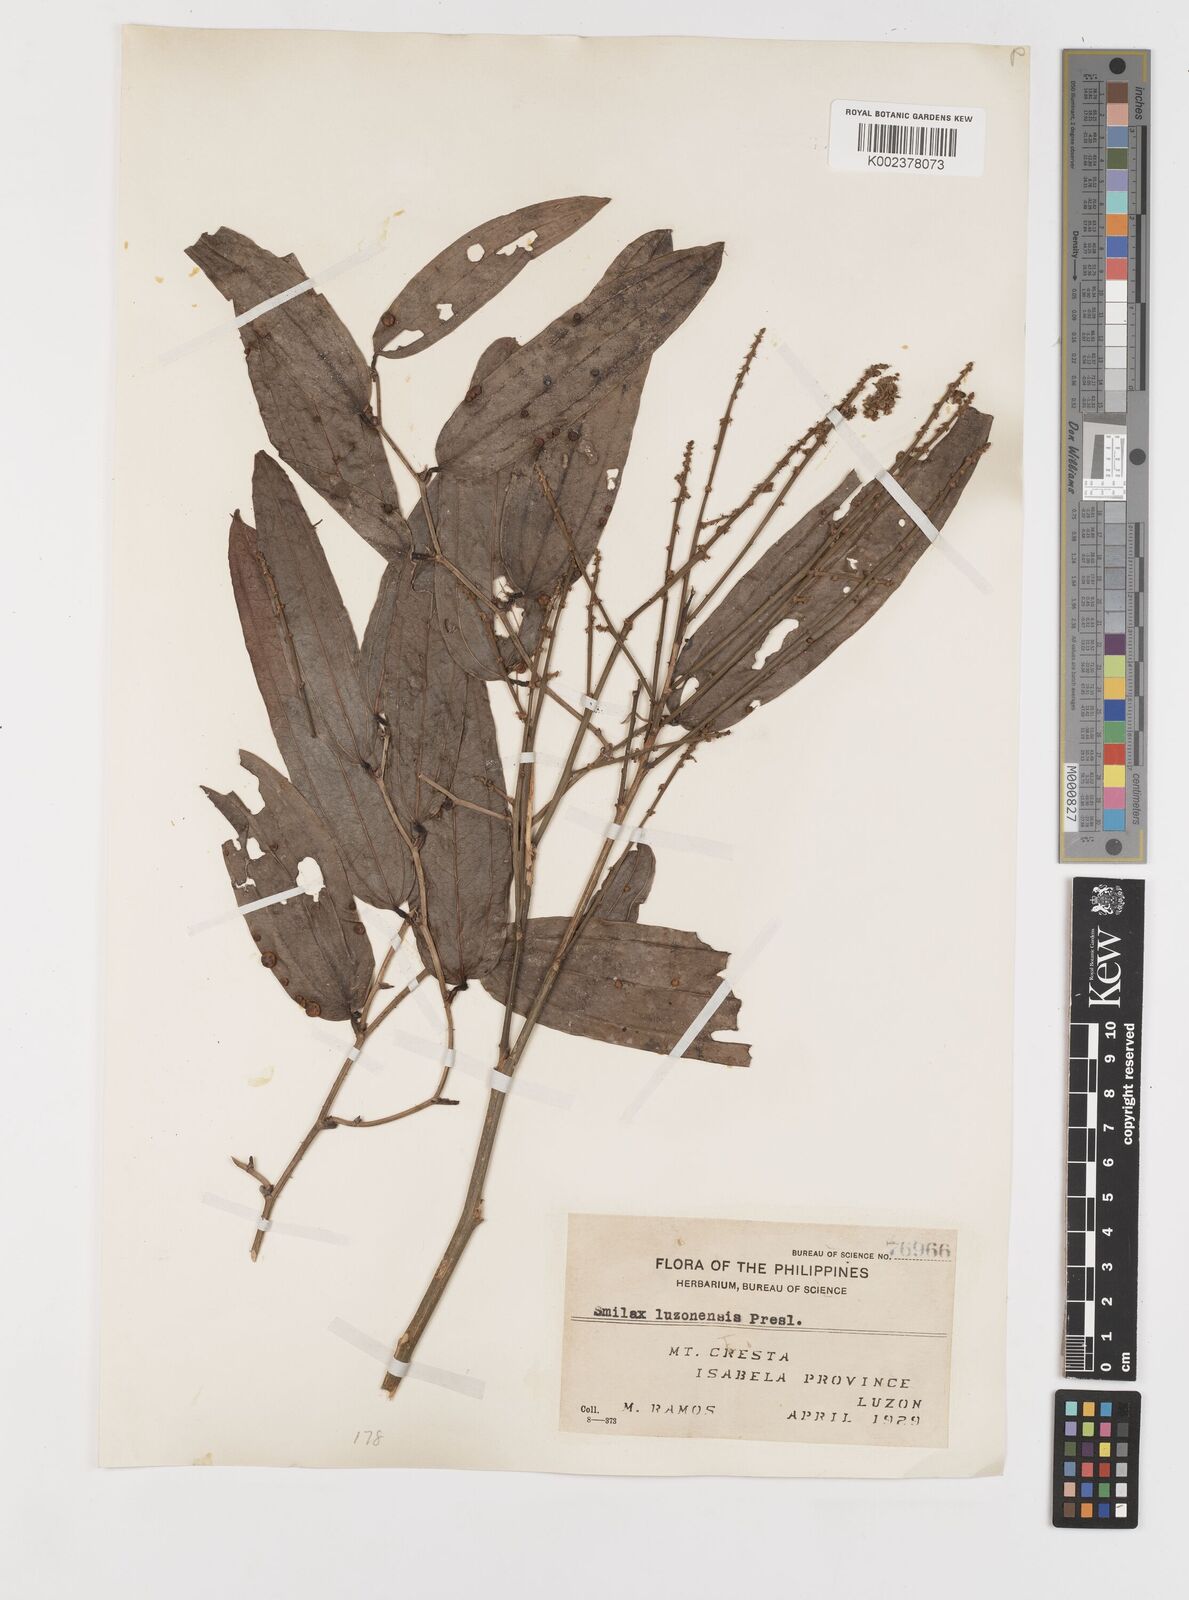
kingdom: Plantae
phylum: Tracheophyta
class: Liliopsida
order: Liliales
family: Smilacaceae
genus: Smilax
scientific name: Smilax luzonensis
